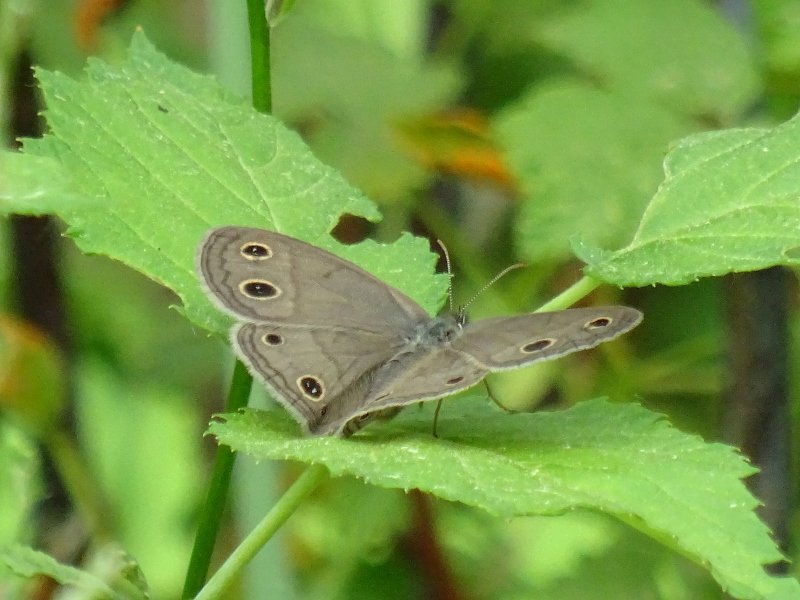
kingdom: Animalia
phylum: Arthropoda
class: Insecta
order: Lepidoptera
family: Nymphalidae
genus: Euptychia
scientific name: Euptychia cymela
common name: Little Wood Satyr
